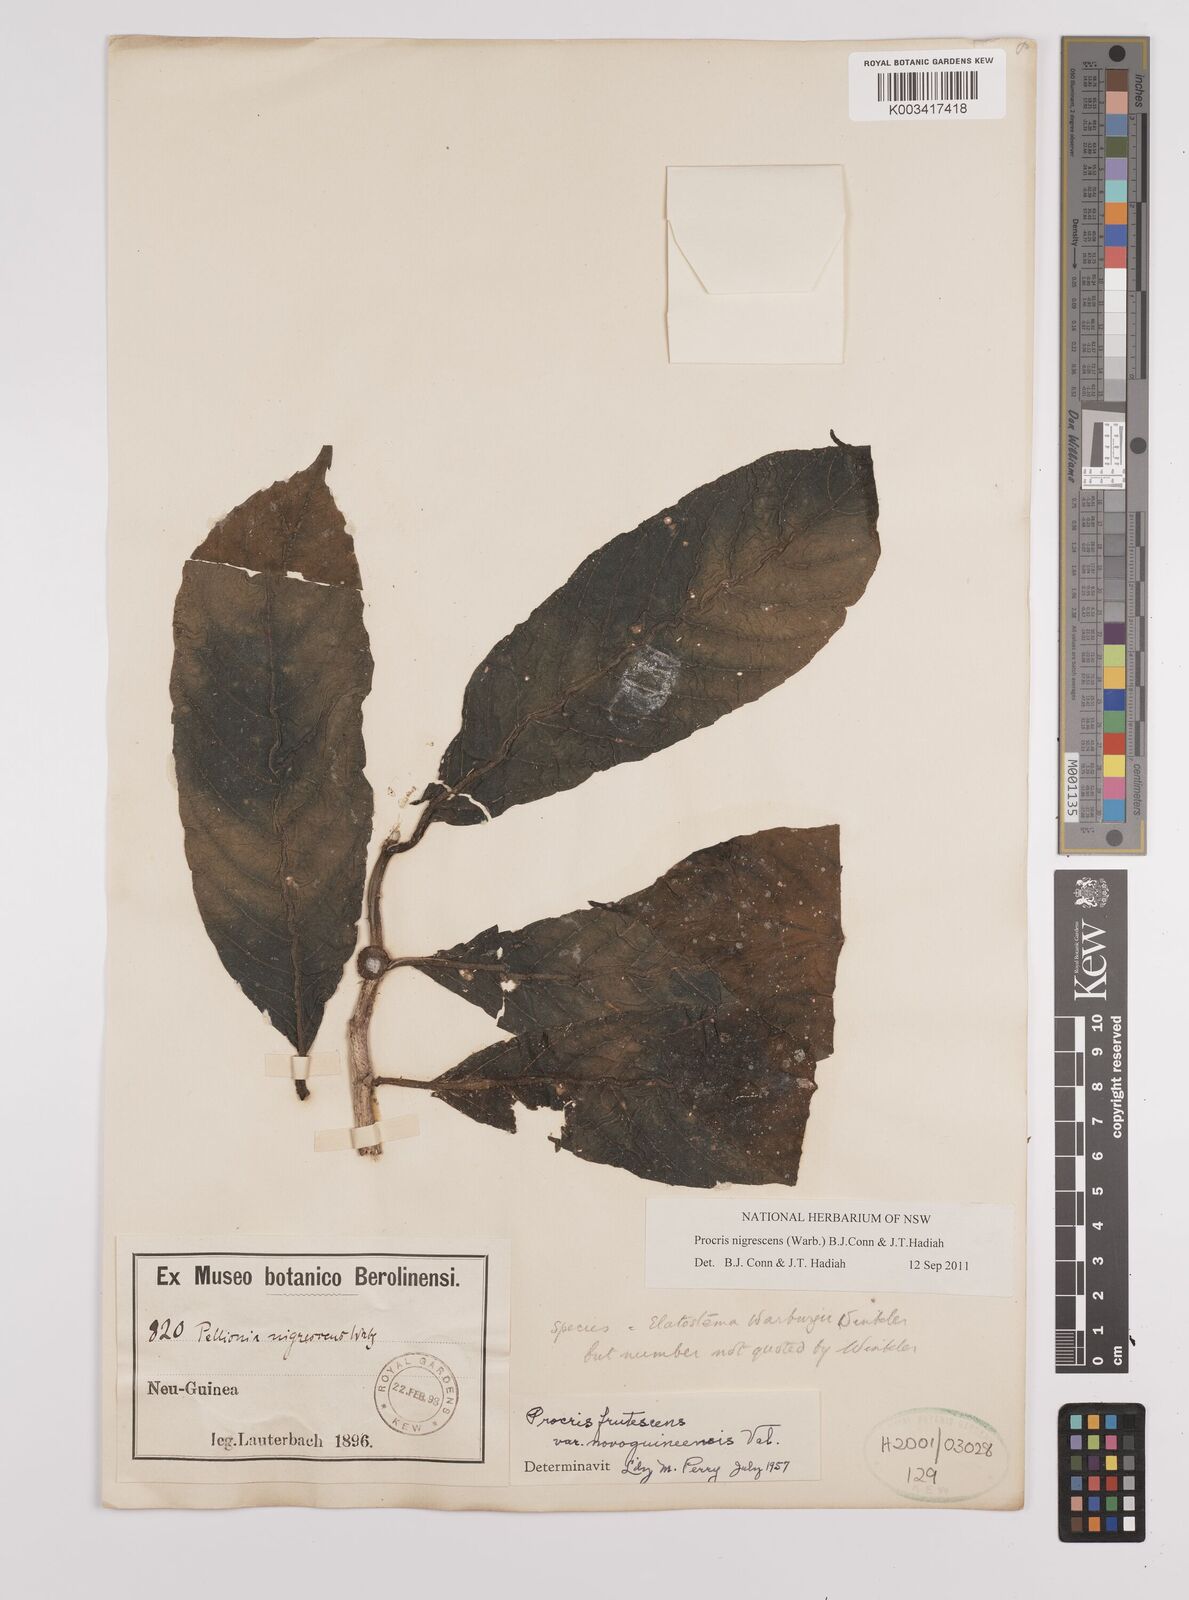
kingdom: Plantae
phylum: Tracheophyta
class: Magnoliopsida
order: Rosales
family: Urticaceae
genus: Procris
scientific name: Procris
